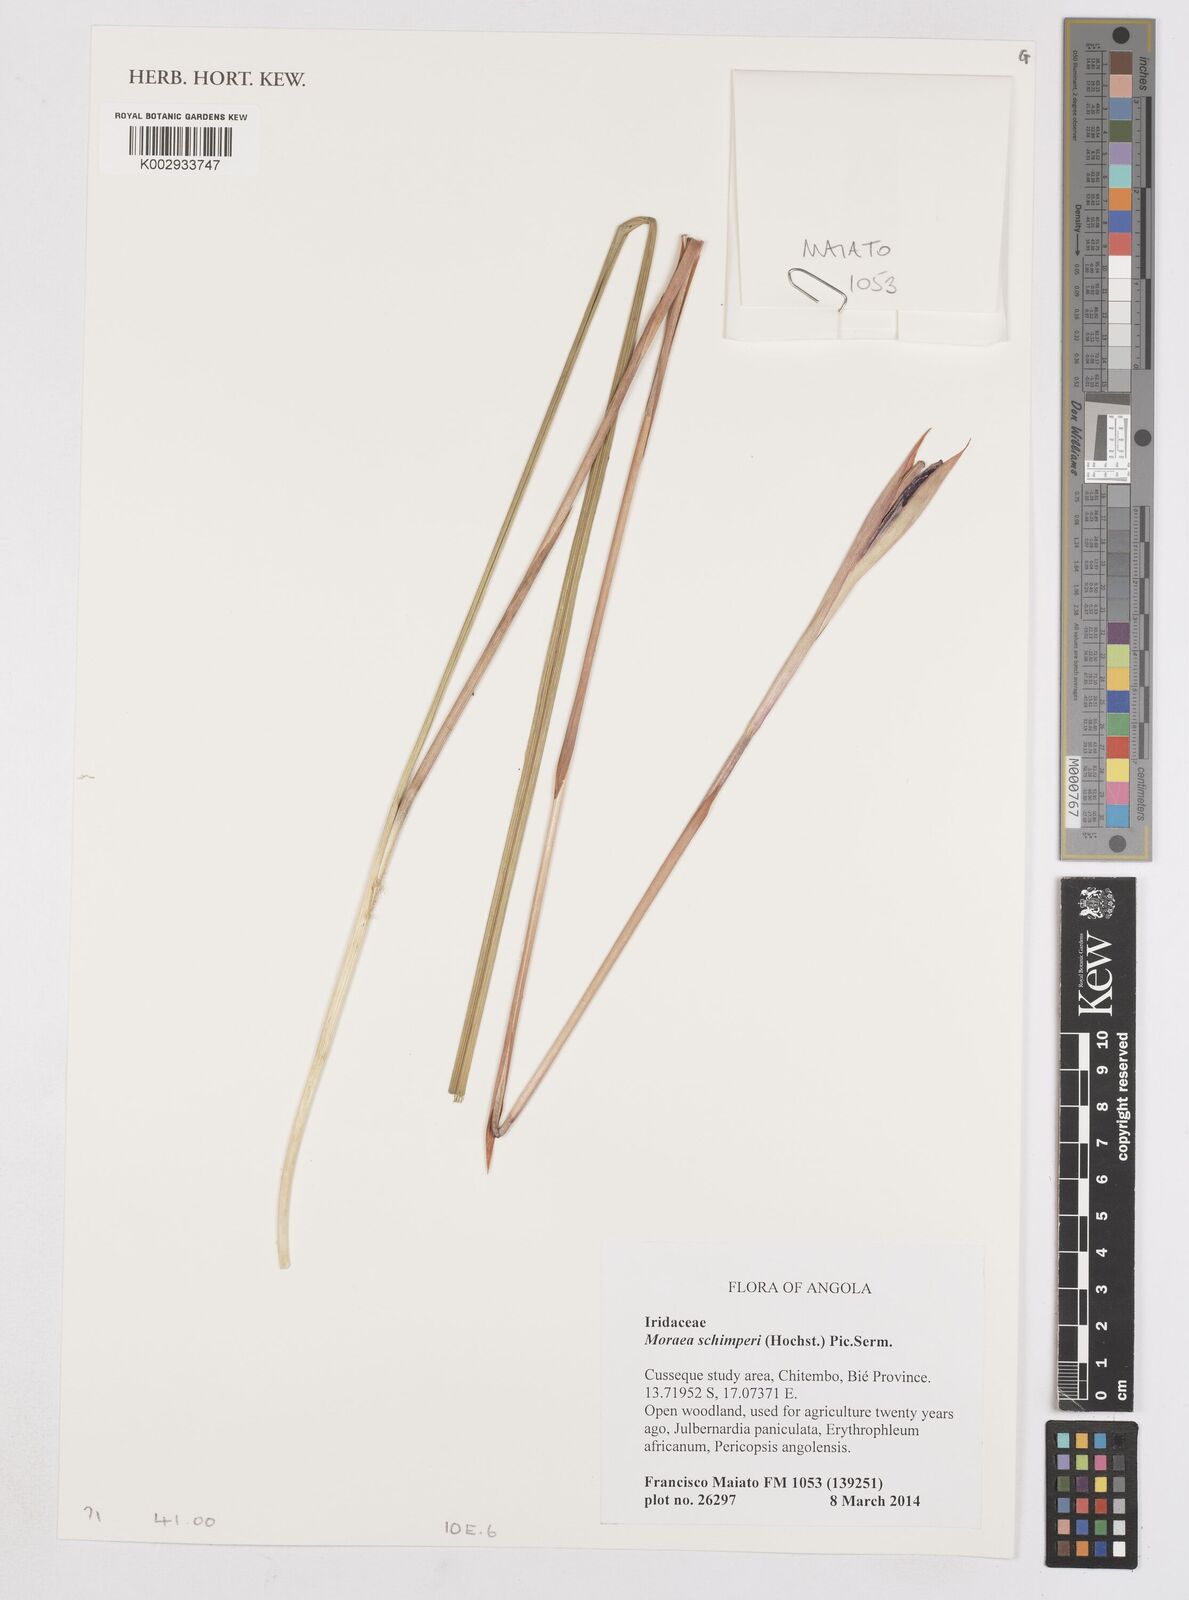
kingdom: Plantae
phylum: Tracheophyta
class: Liliopsida
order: Asparagales
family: Iridaceae
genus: Moraea
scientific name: Moraea schimperi
